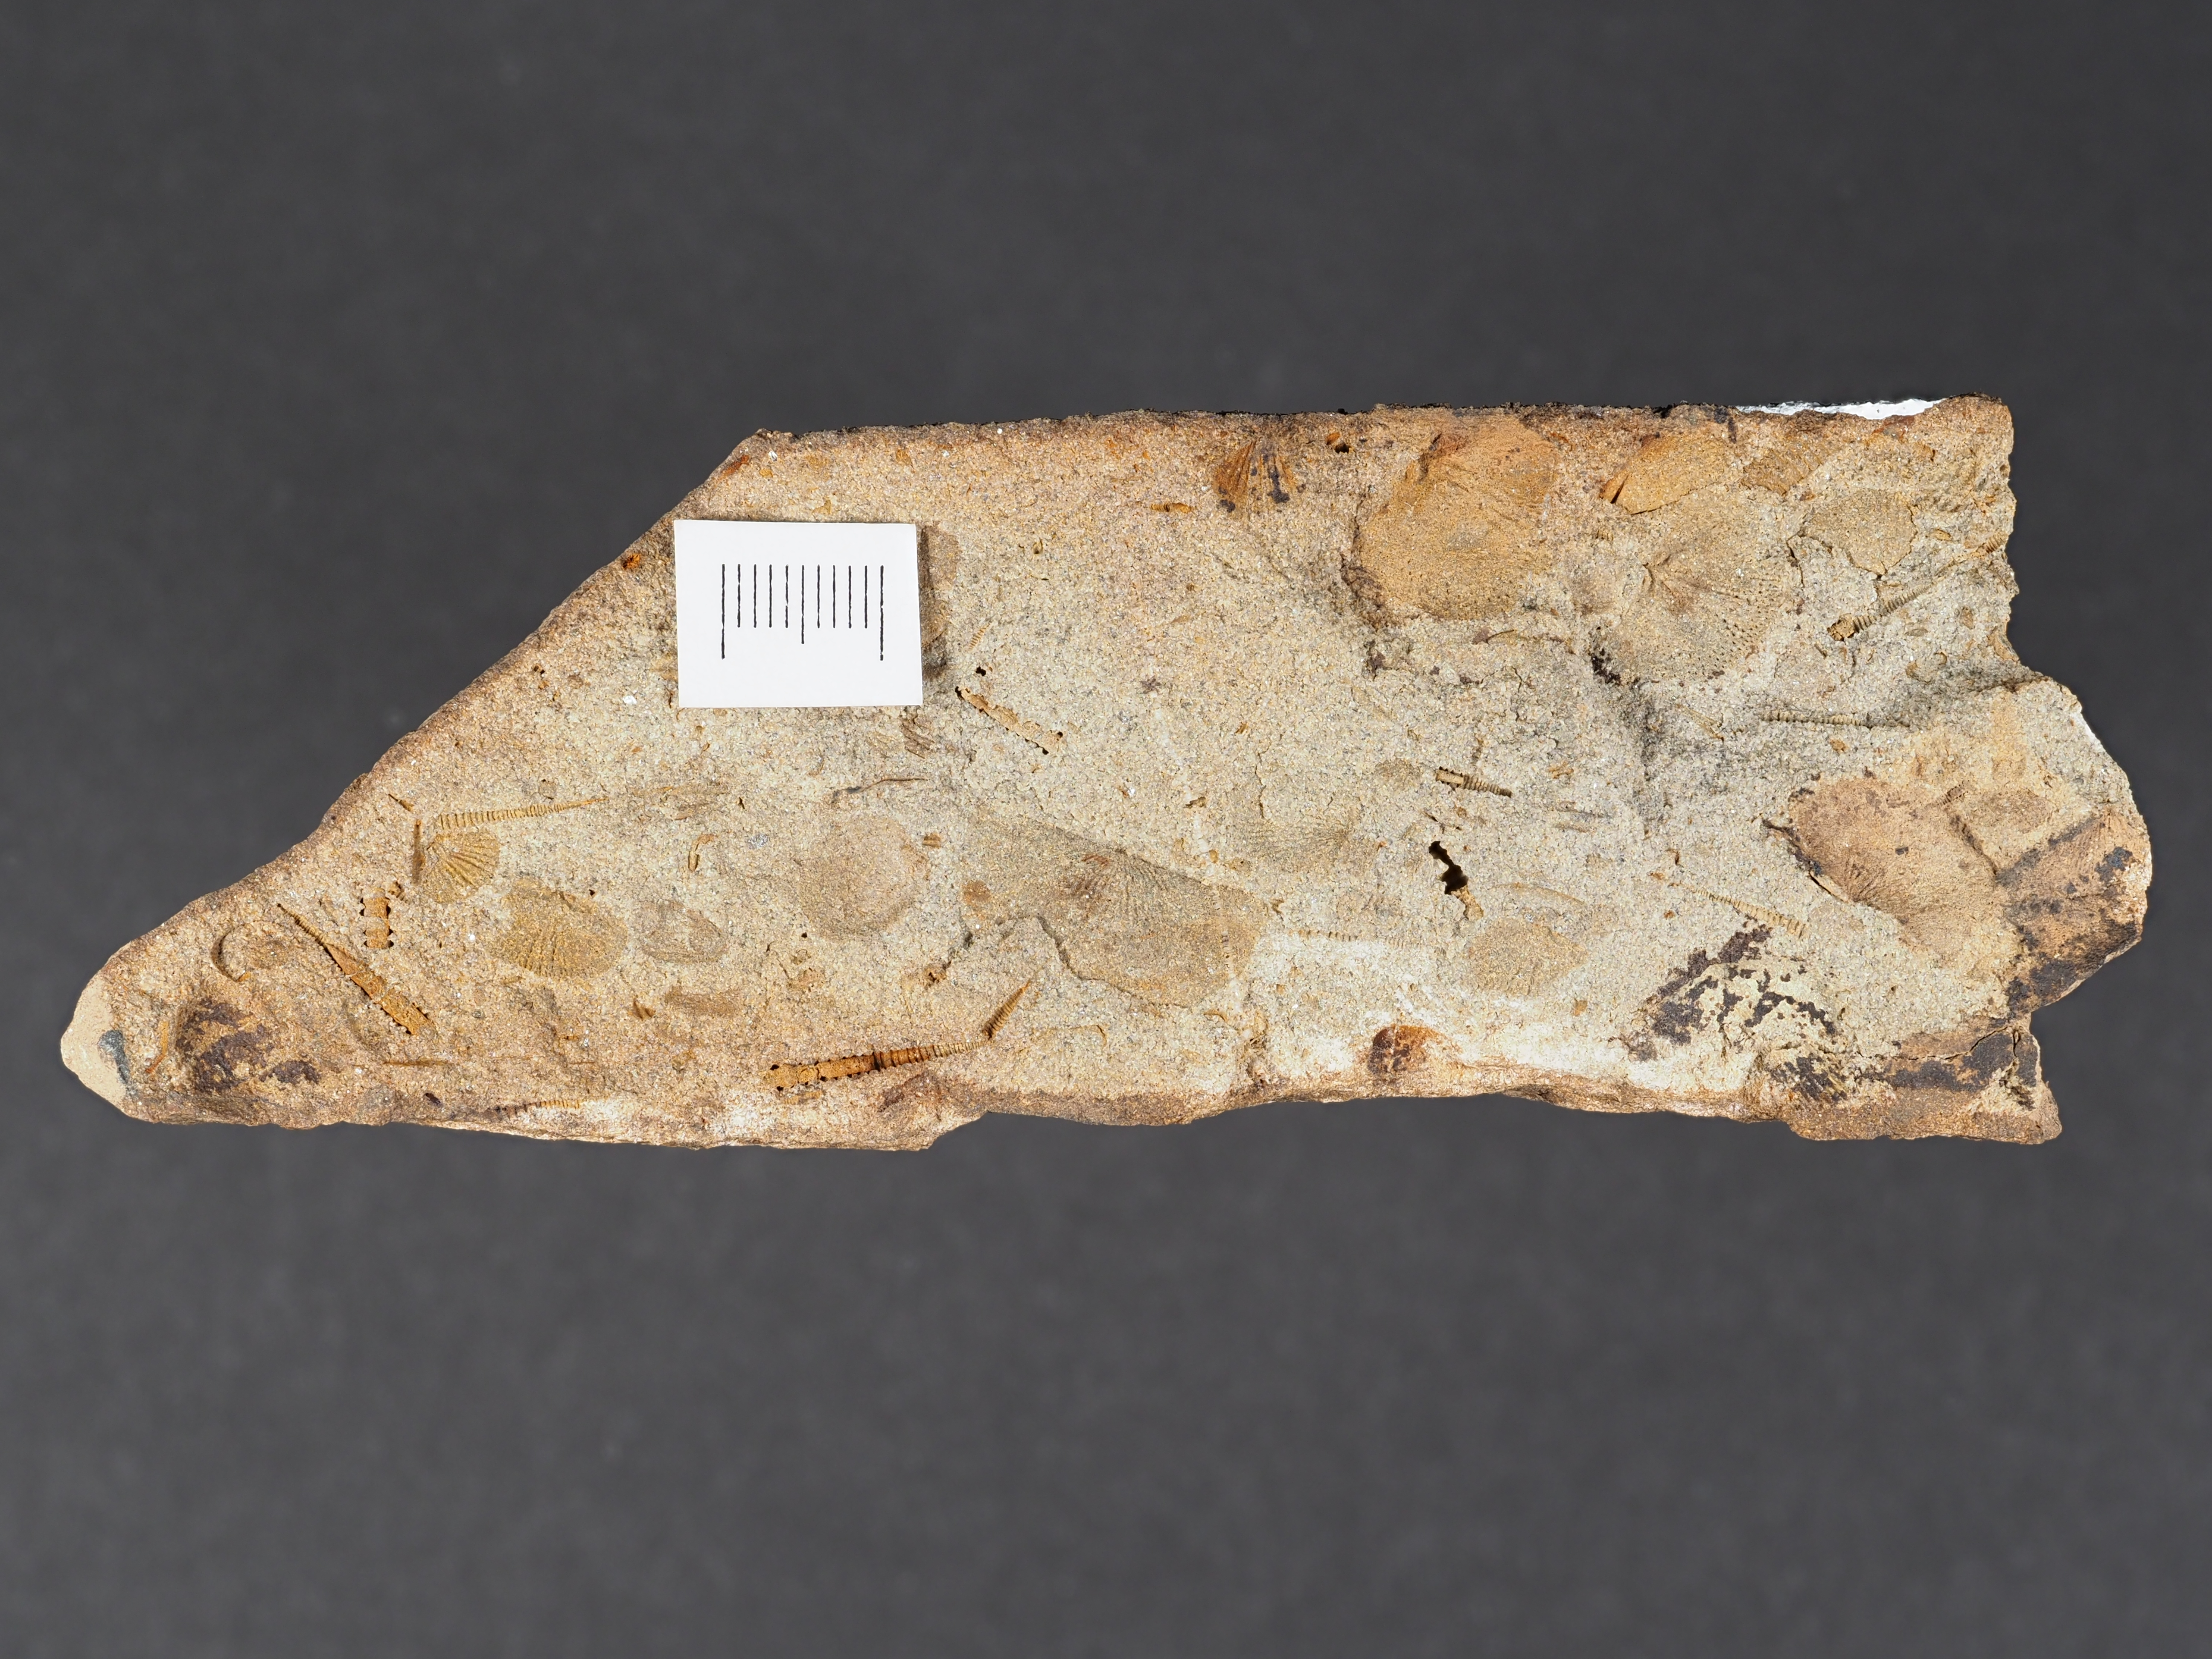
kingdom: Animalia
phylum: Mollusca
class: Bivalvia
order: Megalodontida
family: Prosocoelidae
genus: Prosocoelus
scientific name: Prosocoelus
